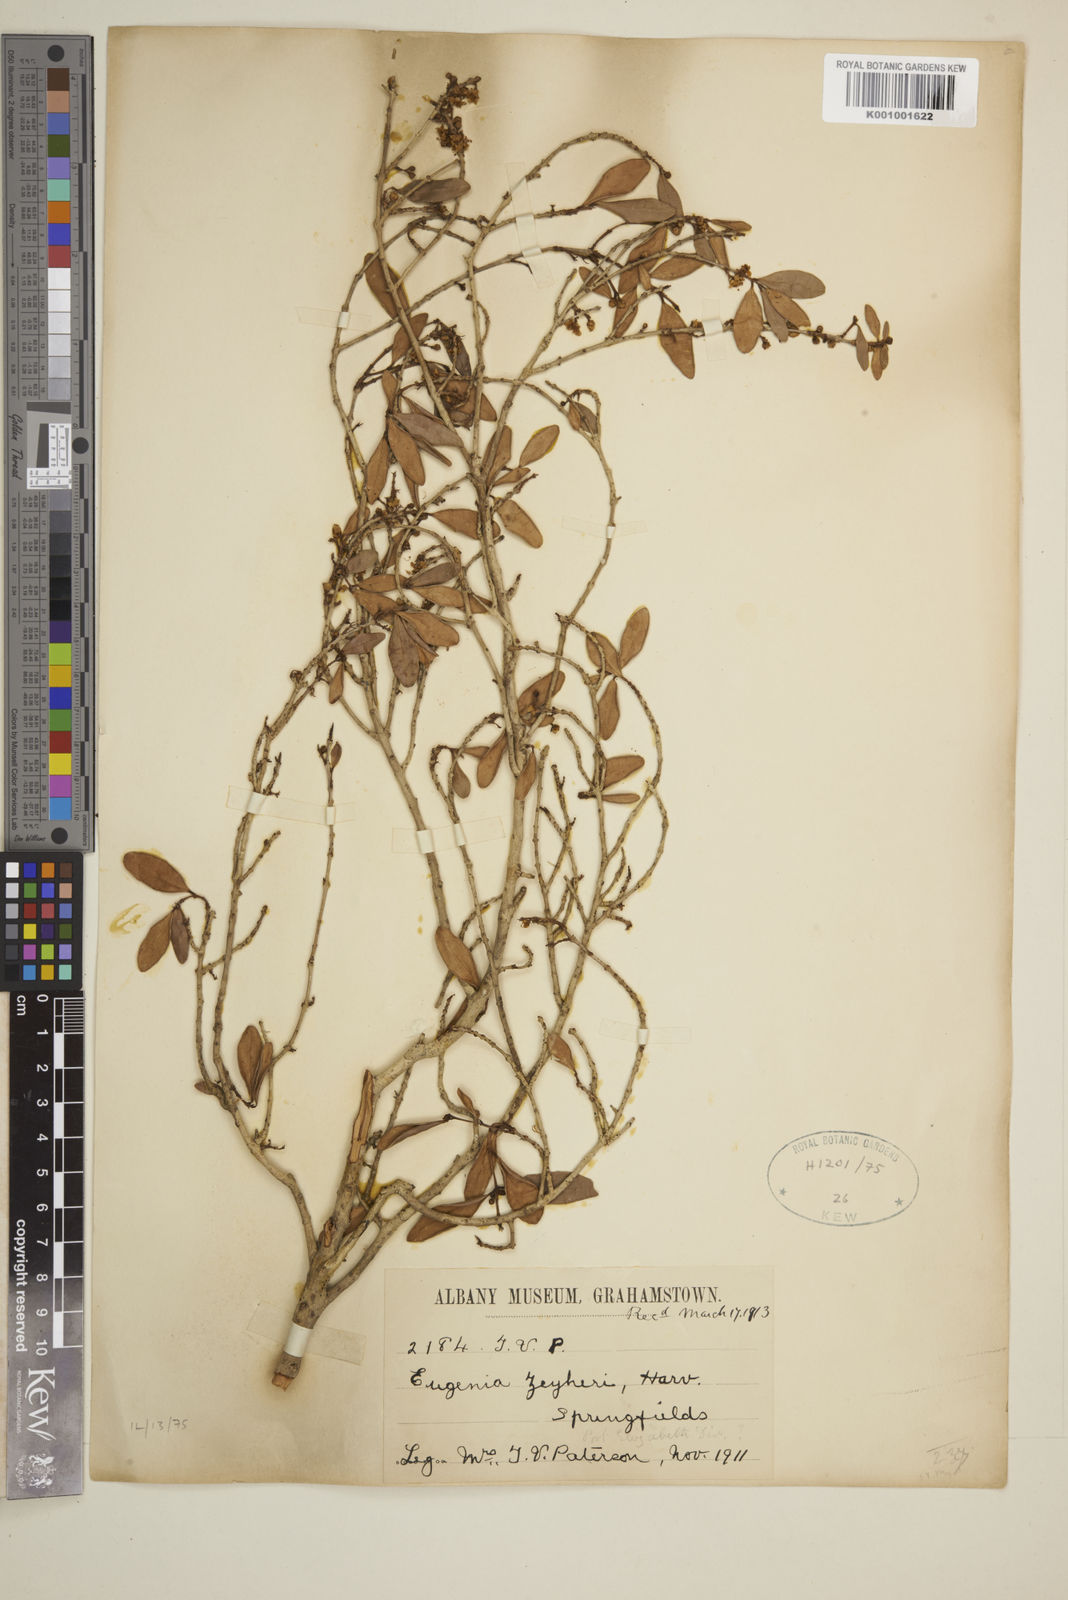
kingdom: Plantae
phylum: Tracheophyta
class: Magnoliopsida
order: Myrtales
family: Myrtaceae
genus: Eugenia
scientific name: Eugenia zeyheri
